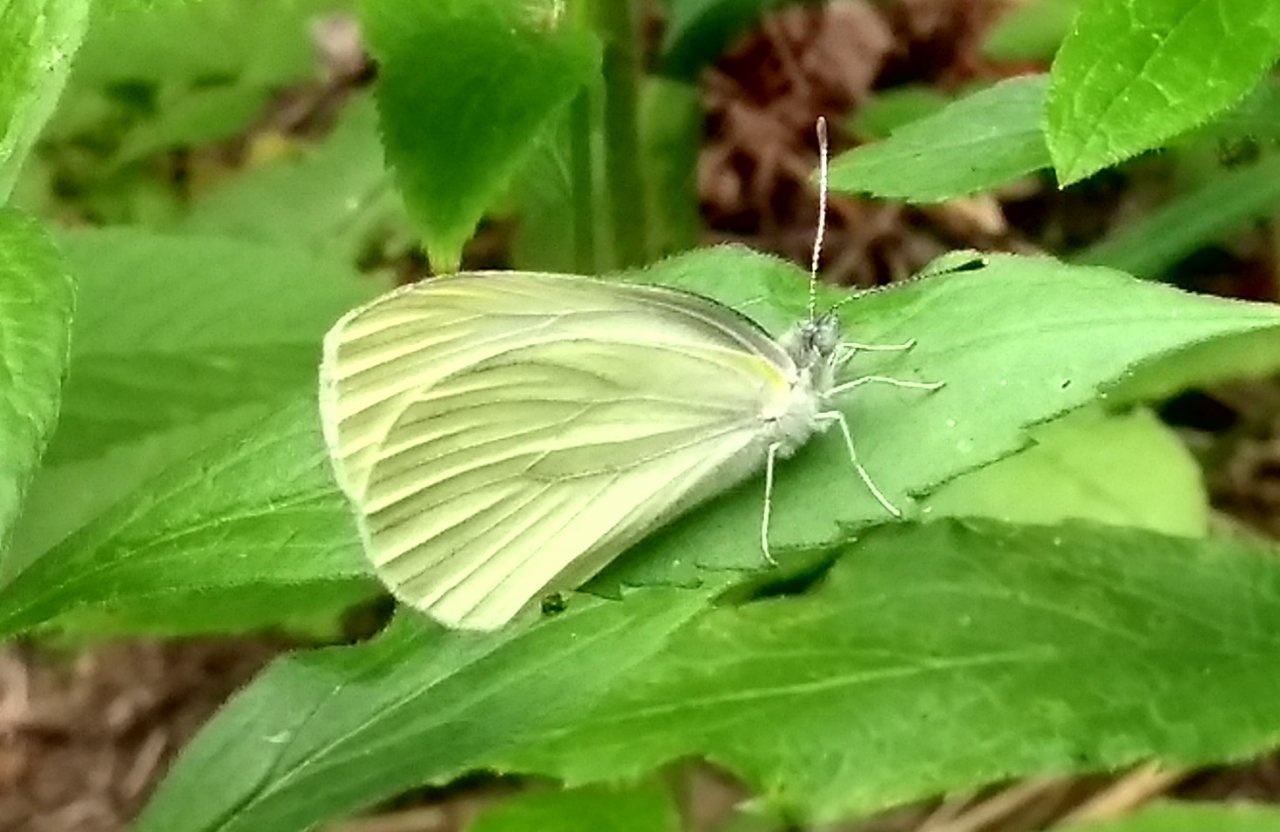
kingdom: Animalia
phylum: Arthropoda
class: Insecta
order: Lepidoptera
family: Pieridae
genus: Pieris
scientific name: Pieris oleracea
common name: Mustard White
